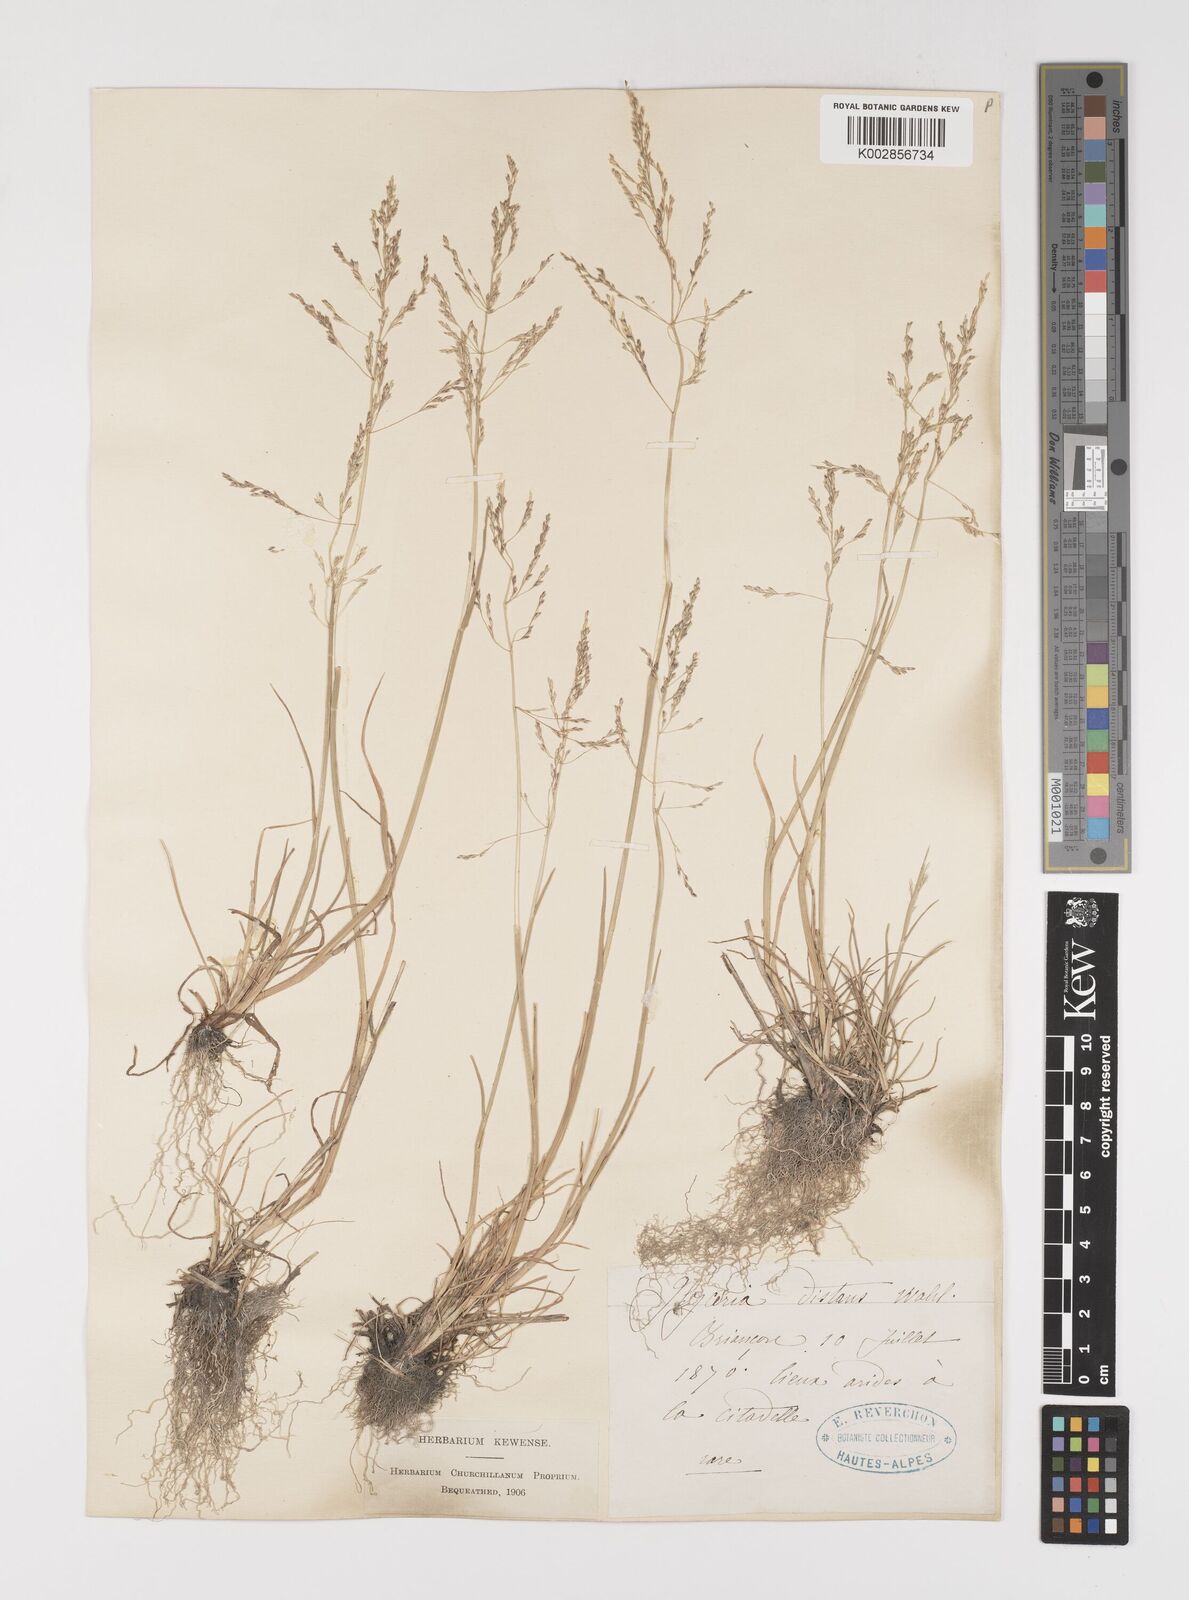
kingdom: Plantae
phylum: Tracheophyta
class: Liliopsida
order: Poales
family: Poaceae
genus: Puccinellia
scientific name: Puccinellia
